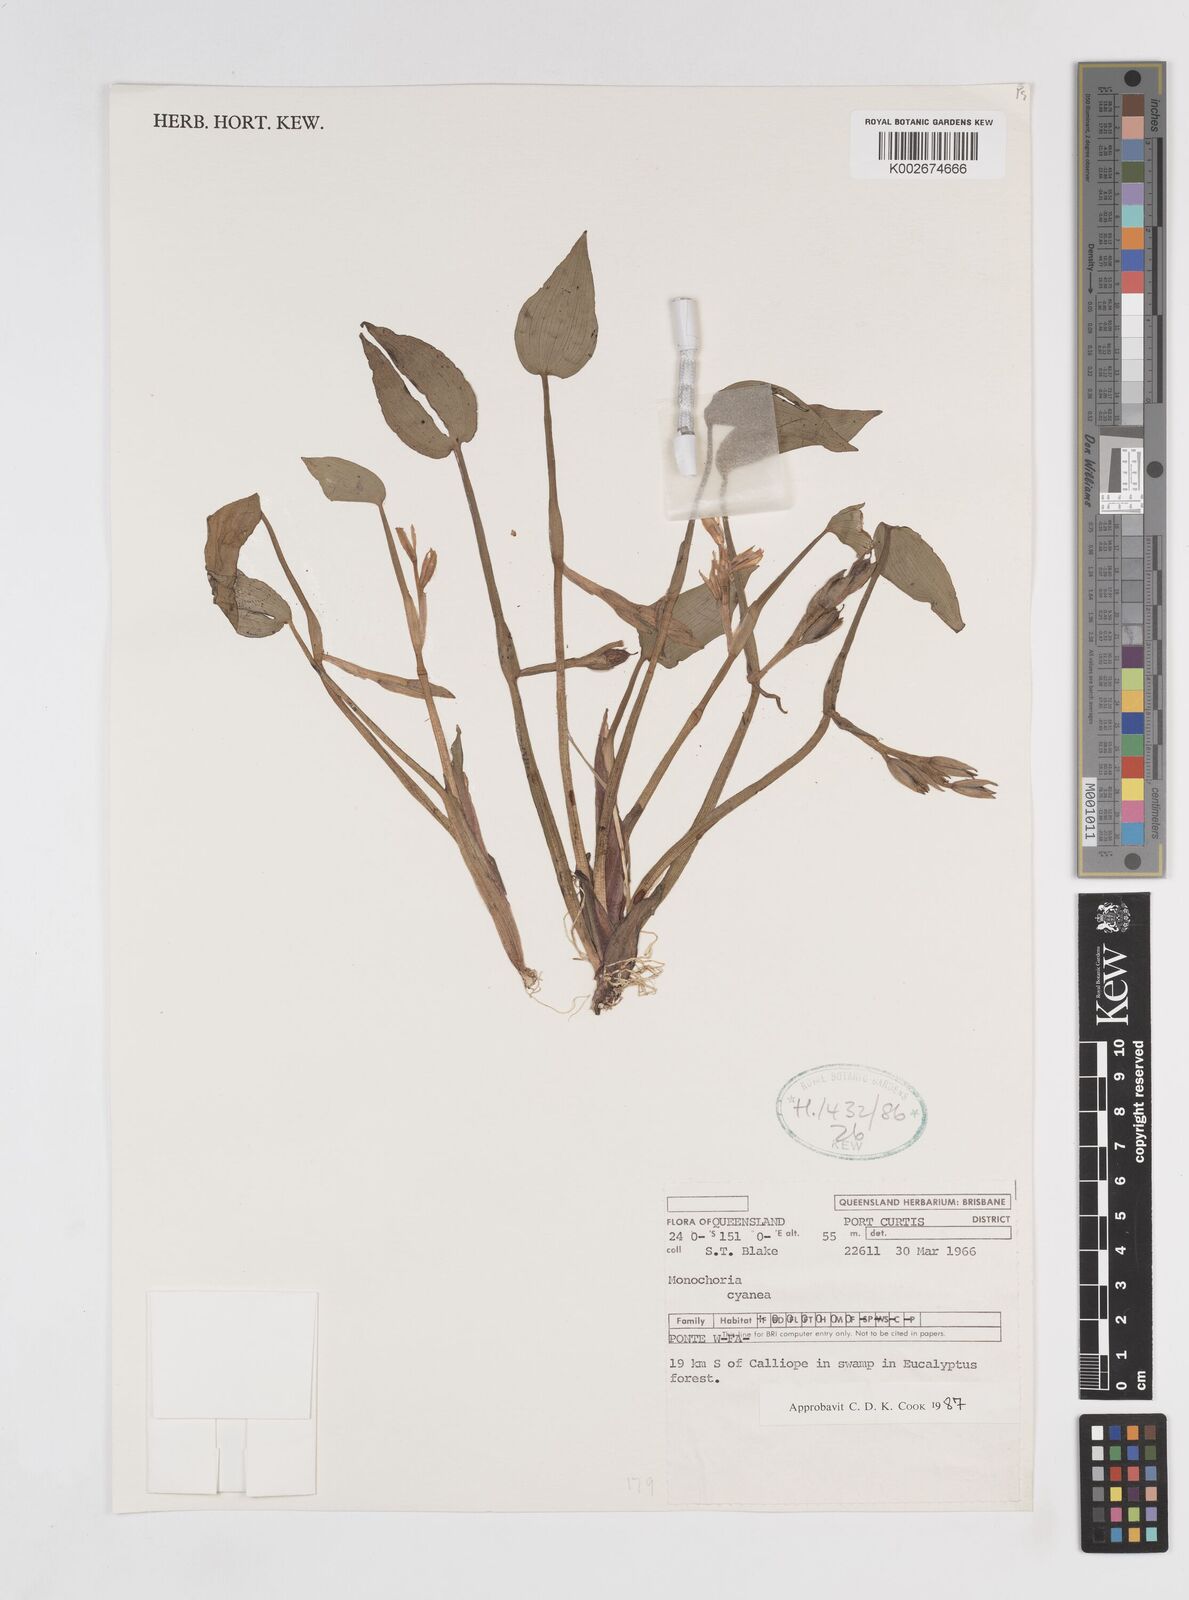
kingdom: Plantae
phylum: Tracheophyta
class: Liliopsida
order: Commelinales
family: Pontederiaceae
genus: Pontederia
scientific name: Pontederia cyanea
